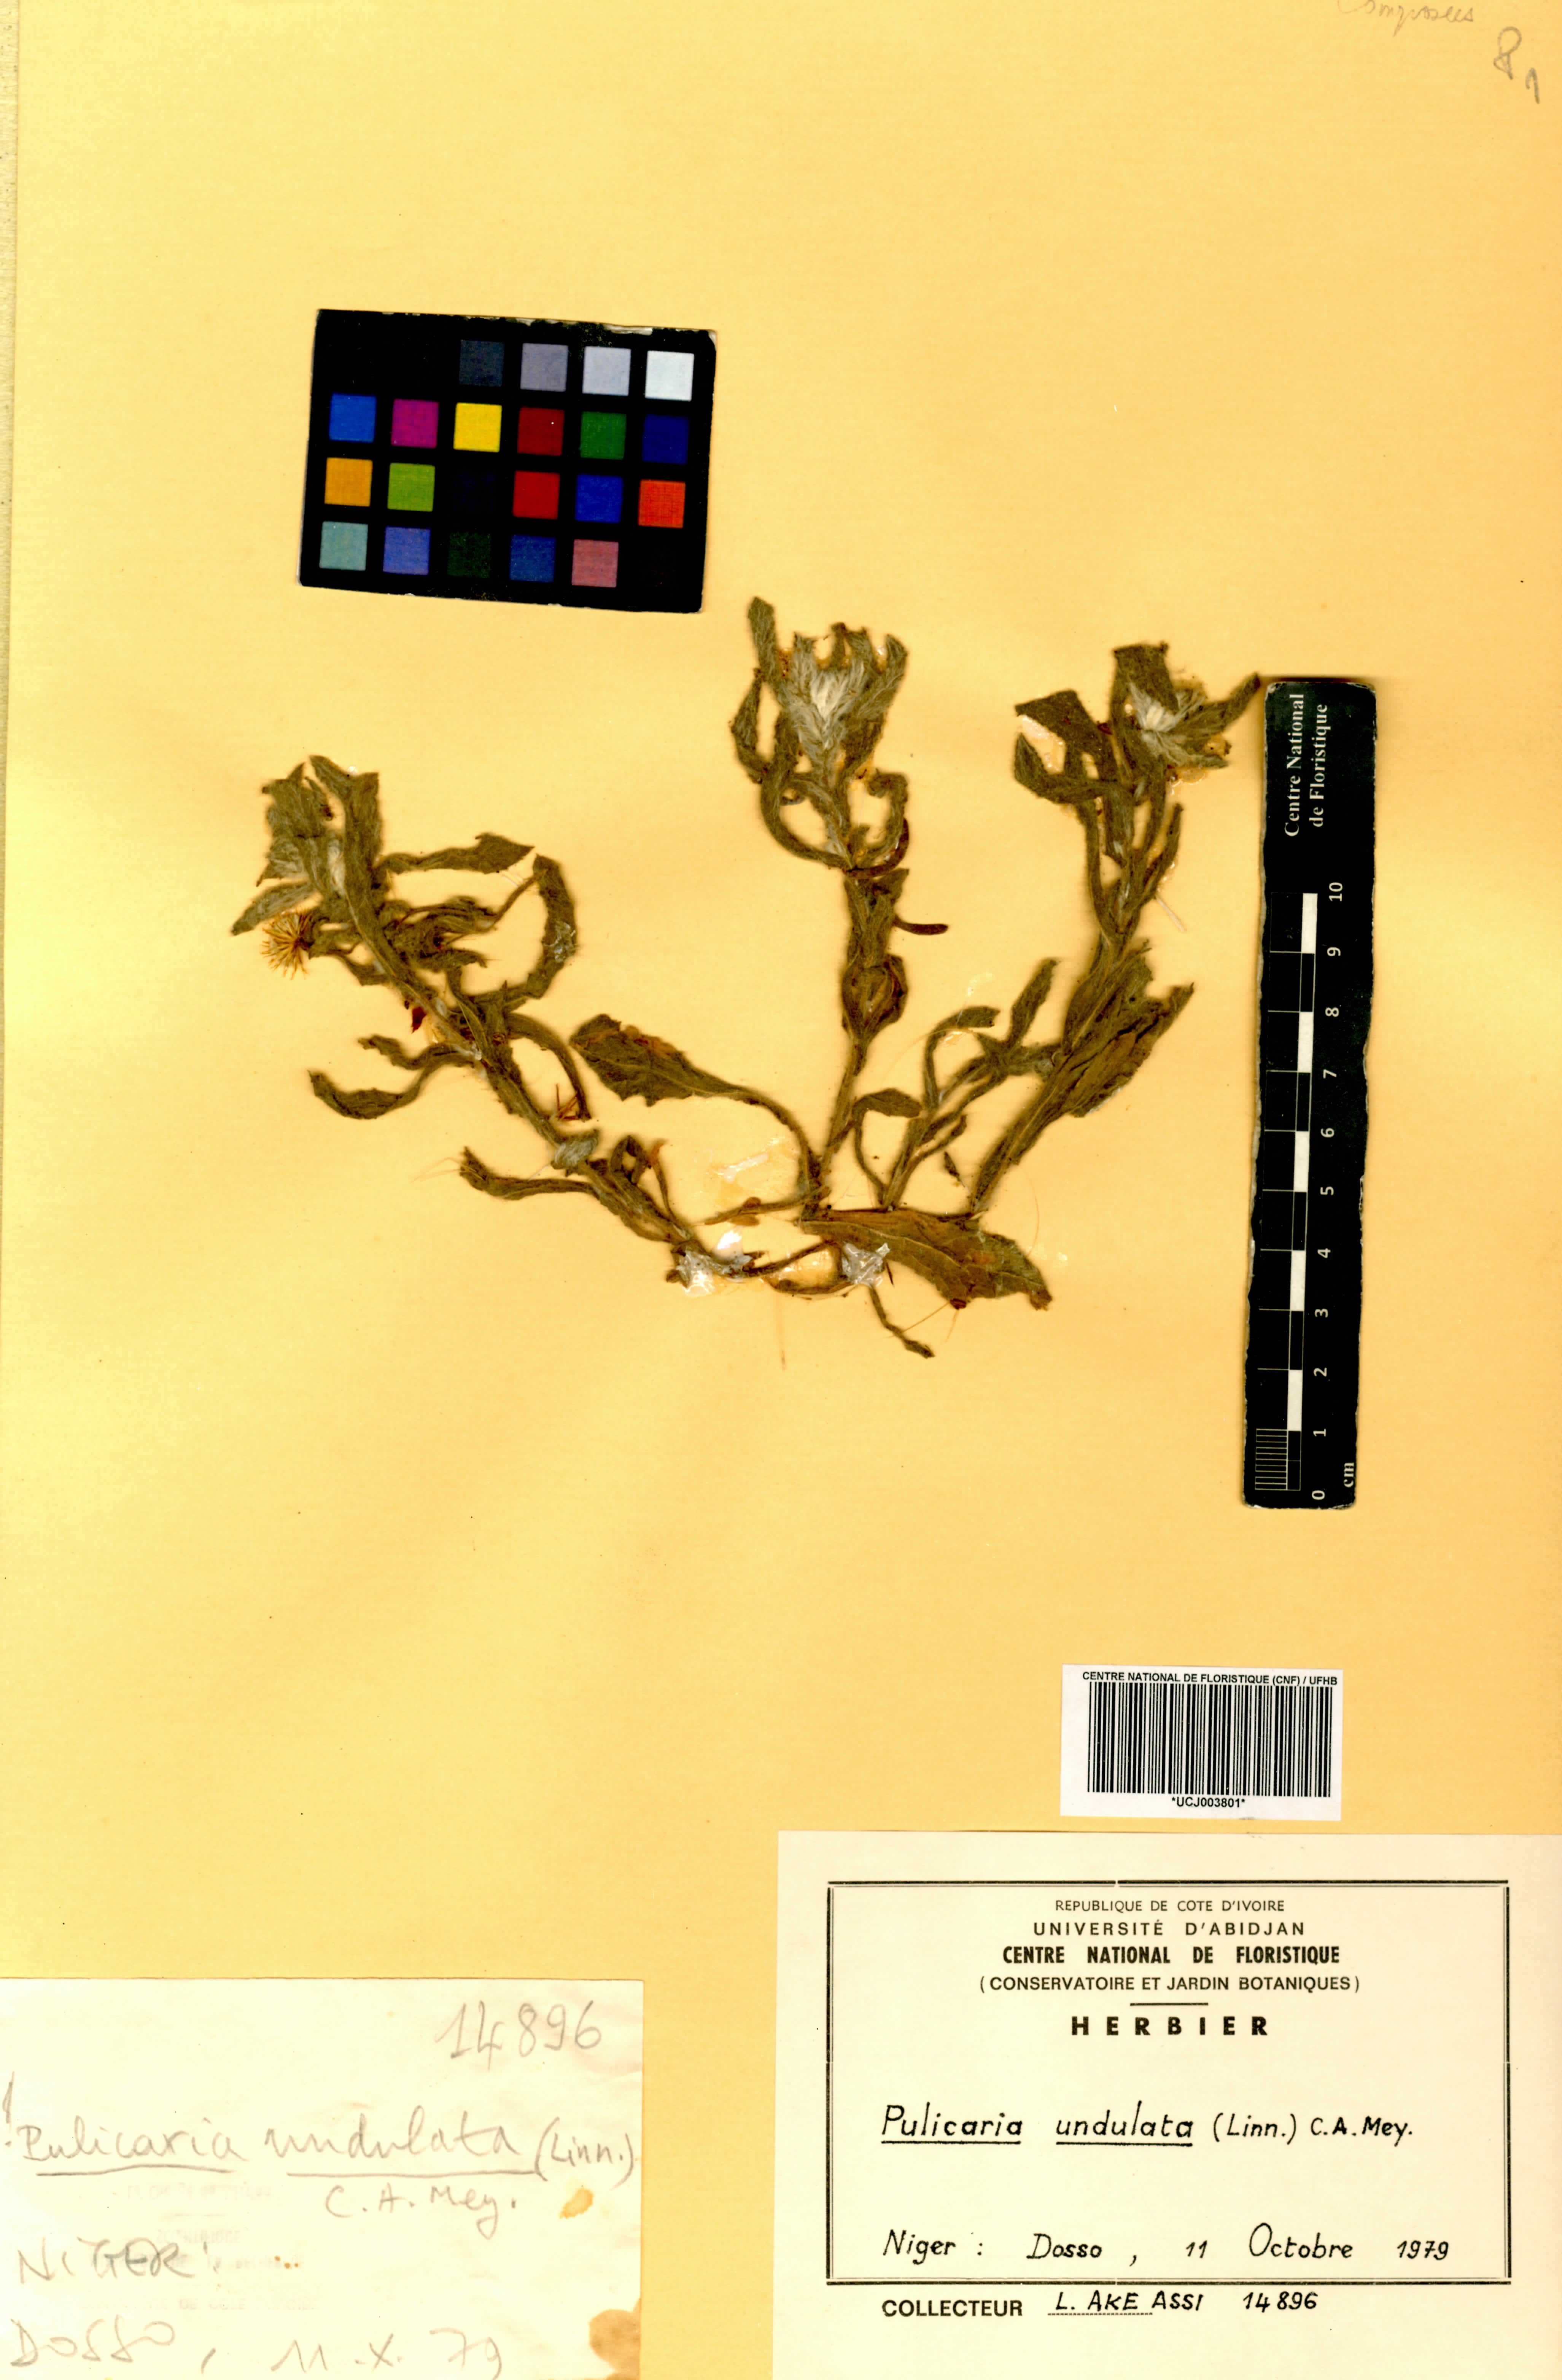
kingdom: Plantae
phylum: Tracheophyta
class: Magnoliopsida
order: Asterales
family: Asteraceae
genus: Pulicaria
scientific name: Pulicaria undulata
